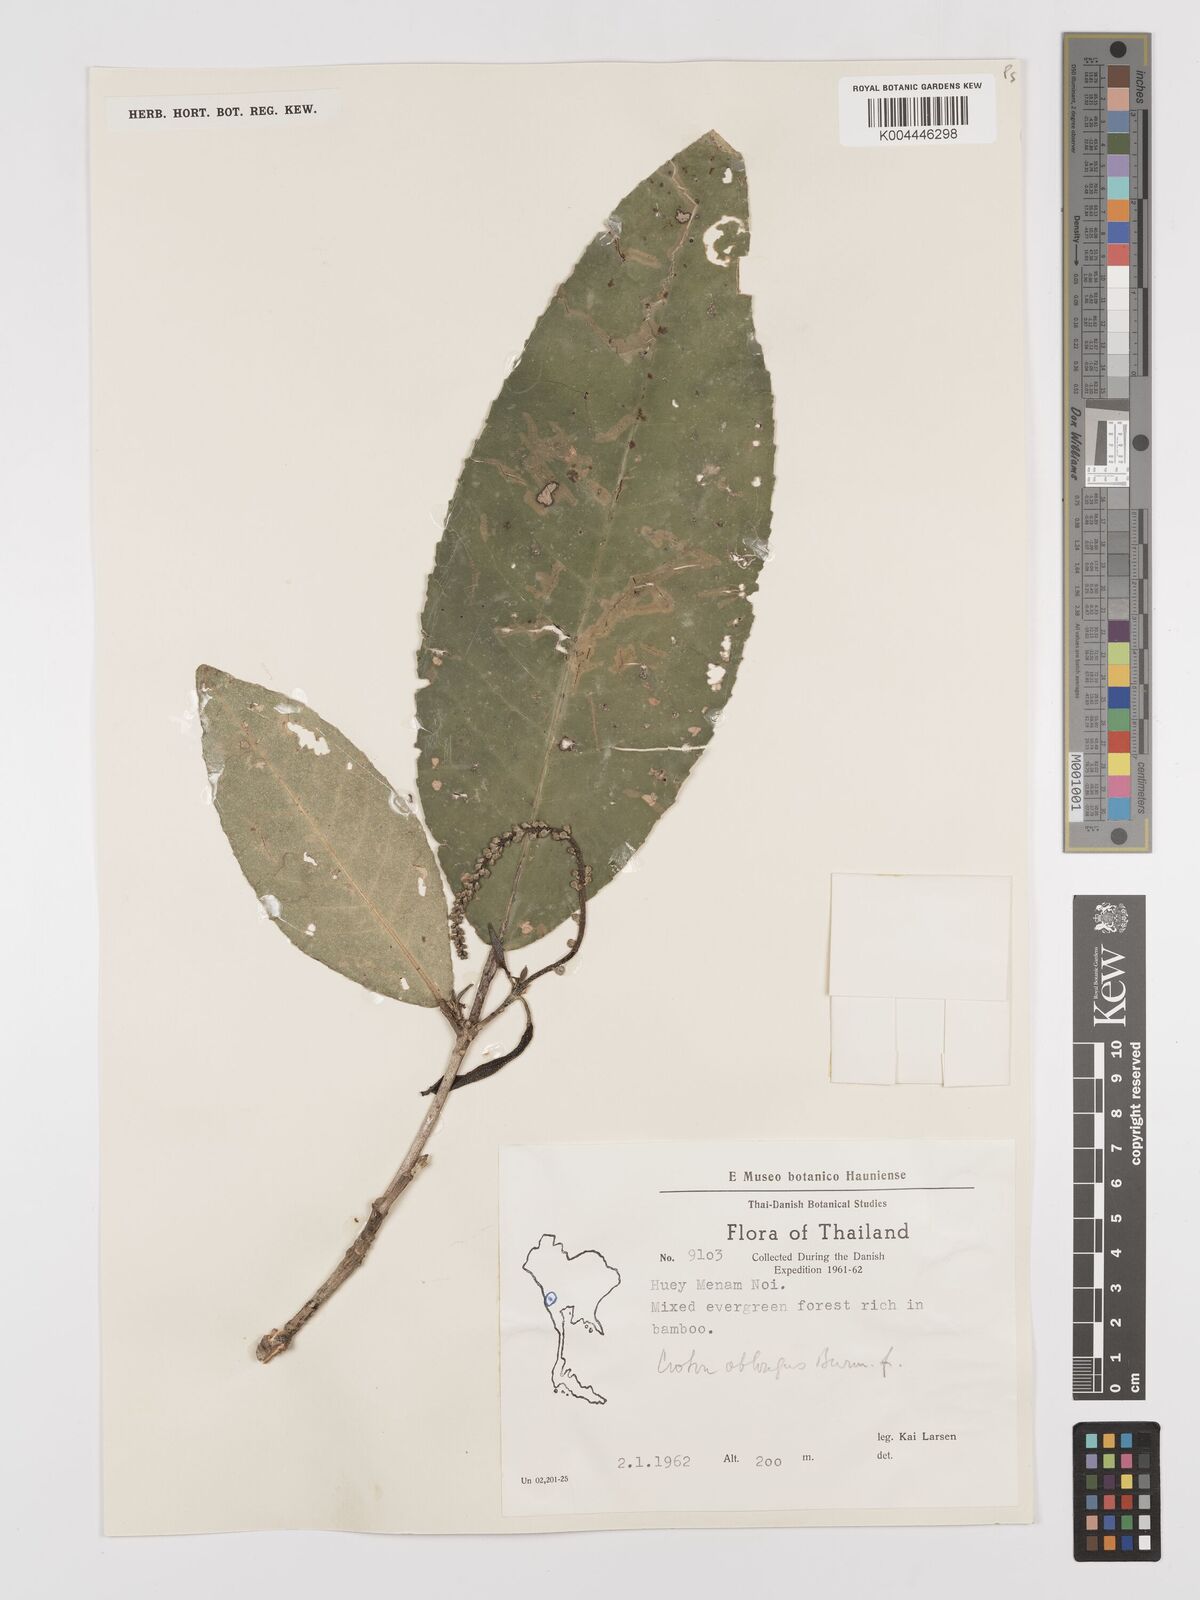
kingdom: Plantae
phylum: Tracheophyta
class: Magnoliopsida
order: Malpighiales
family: Euphorbiaceae
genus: Croton
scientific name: Croton
